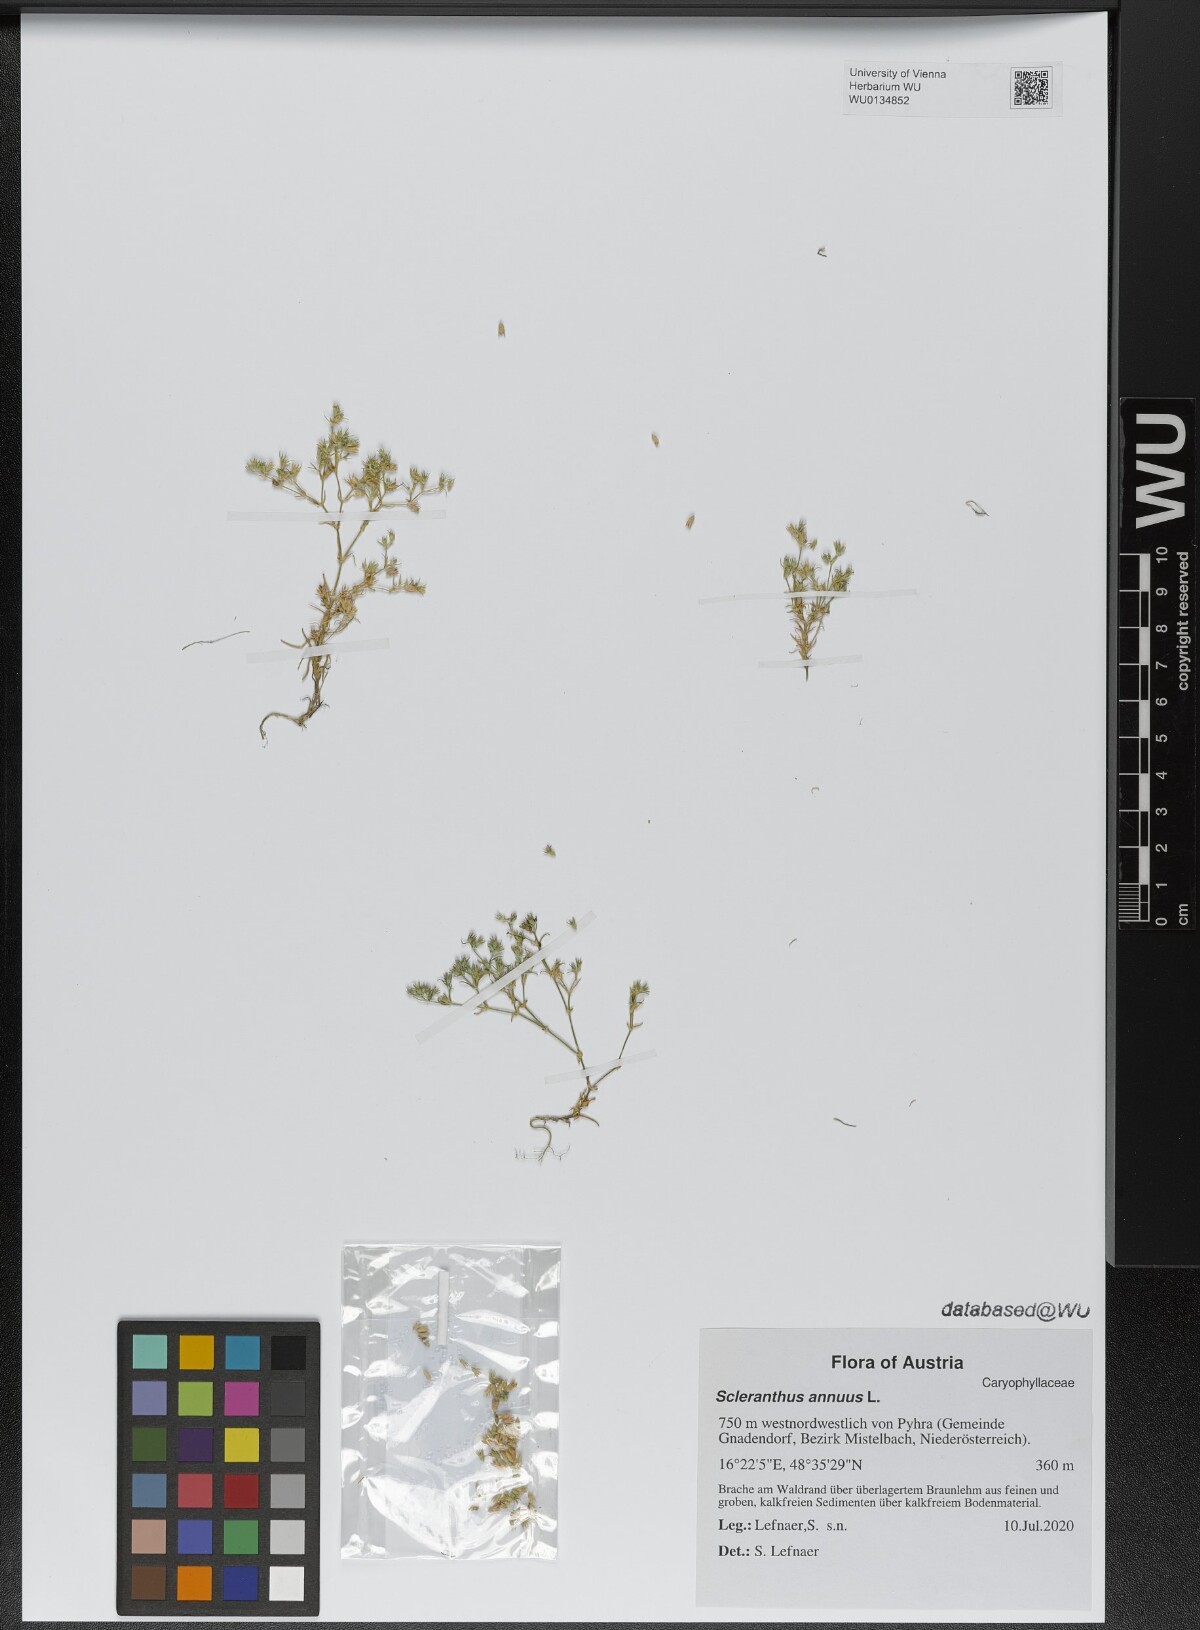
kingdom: Plantae
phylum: Tracheophyta
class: Magnoliopsida
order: Caryophyllales
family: Caryophyllaceae
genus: Scleranthus
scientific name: Scleranthus annuus
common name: Annual knawel
